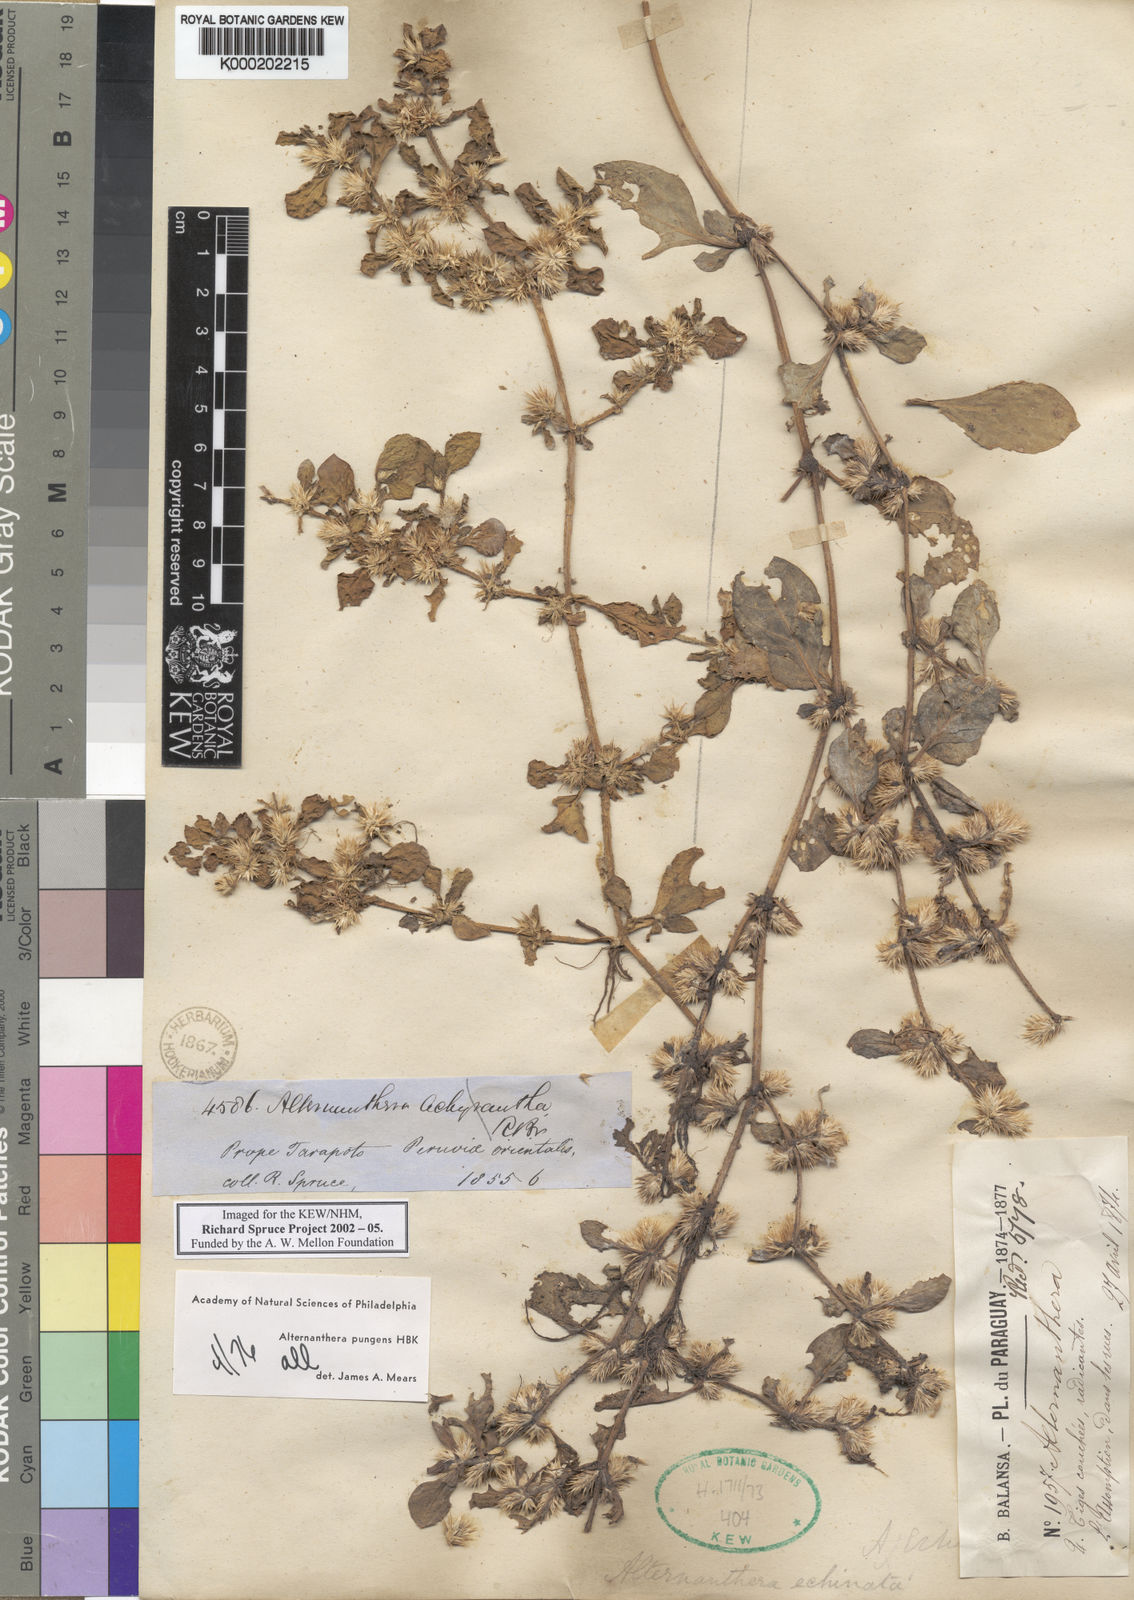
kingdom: Plantae
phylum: Tracheophyta
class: Magnoliopsida
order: Caryophyllales
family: Amaranthaceae
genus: Alternanthera
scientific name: Alternanthera
